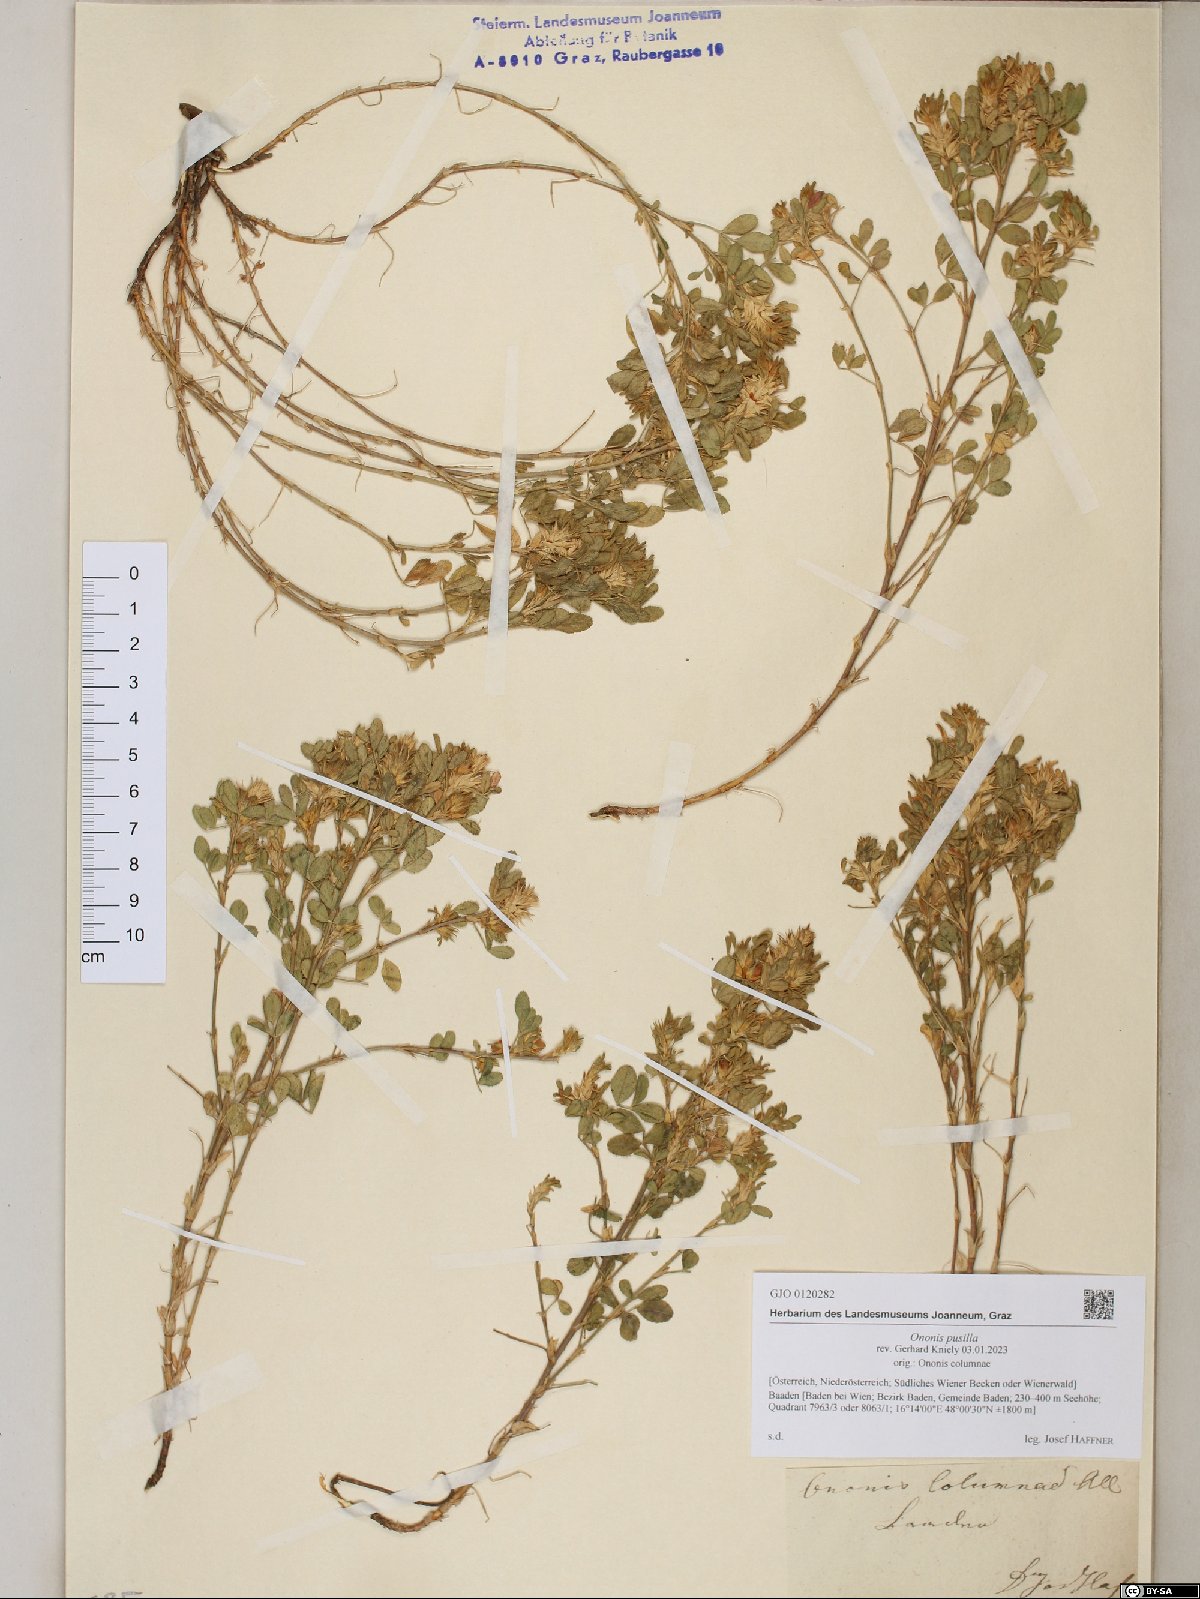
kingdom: Plantae
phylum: Tracheophyta
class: Magnoliopsida
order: Fabales
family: Fabaceae
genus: Ononis
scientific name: Ononis pusilla
